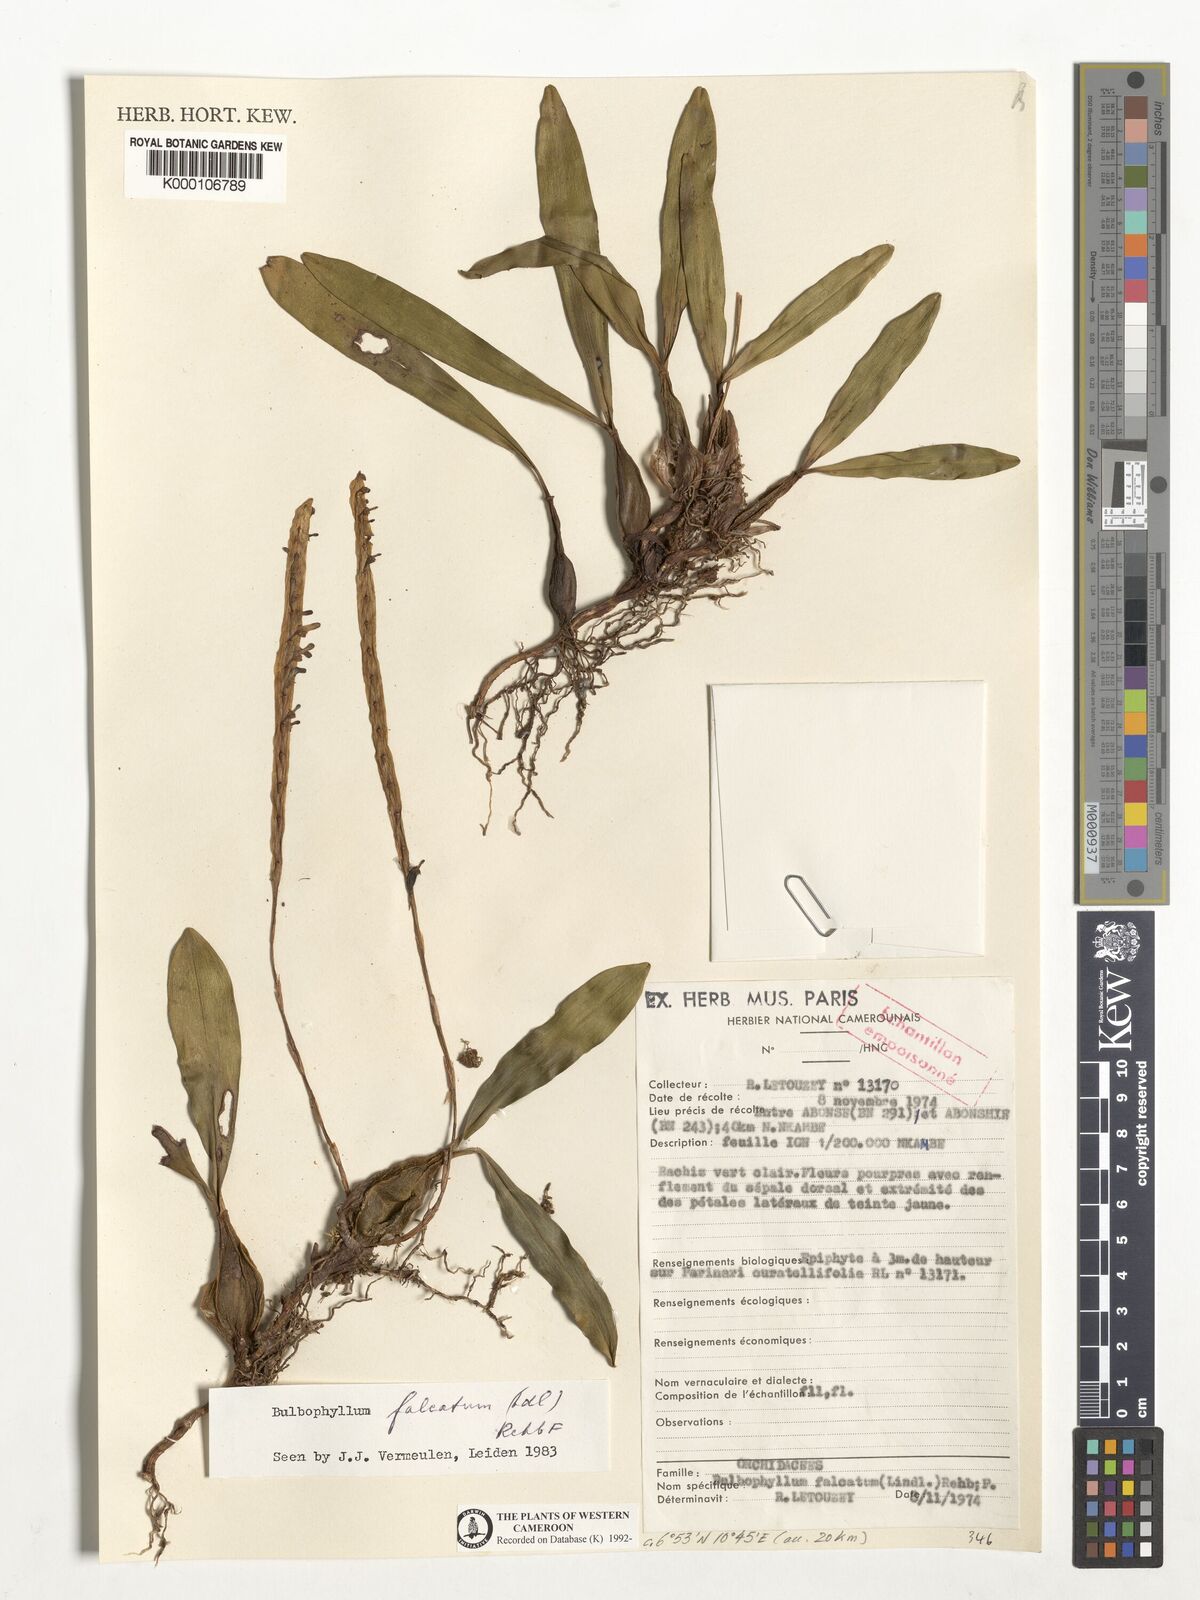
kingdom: Plantae
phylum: Tracheophyta
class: Liliopsida
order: Asparagales
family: Orchidaceae
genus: Bulbophyllum
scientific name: Bulbophyllum falcatum
